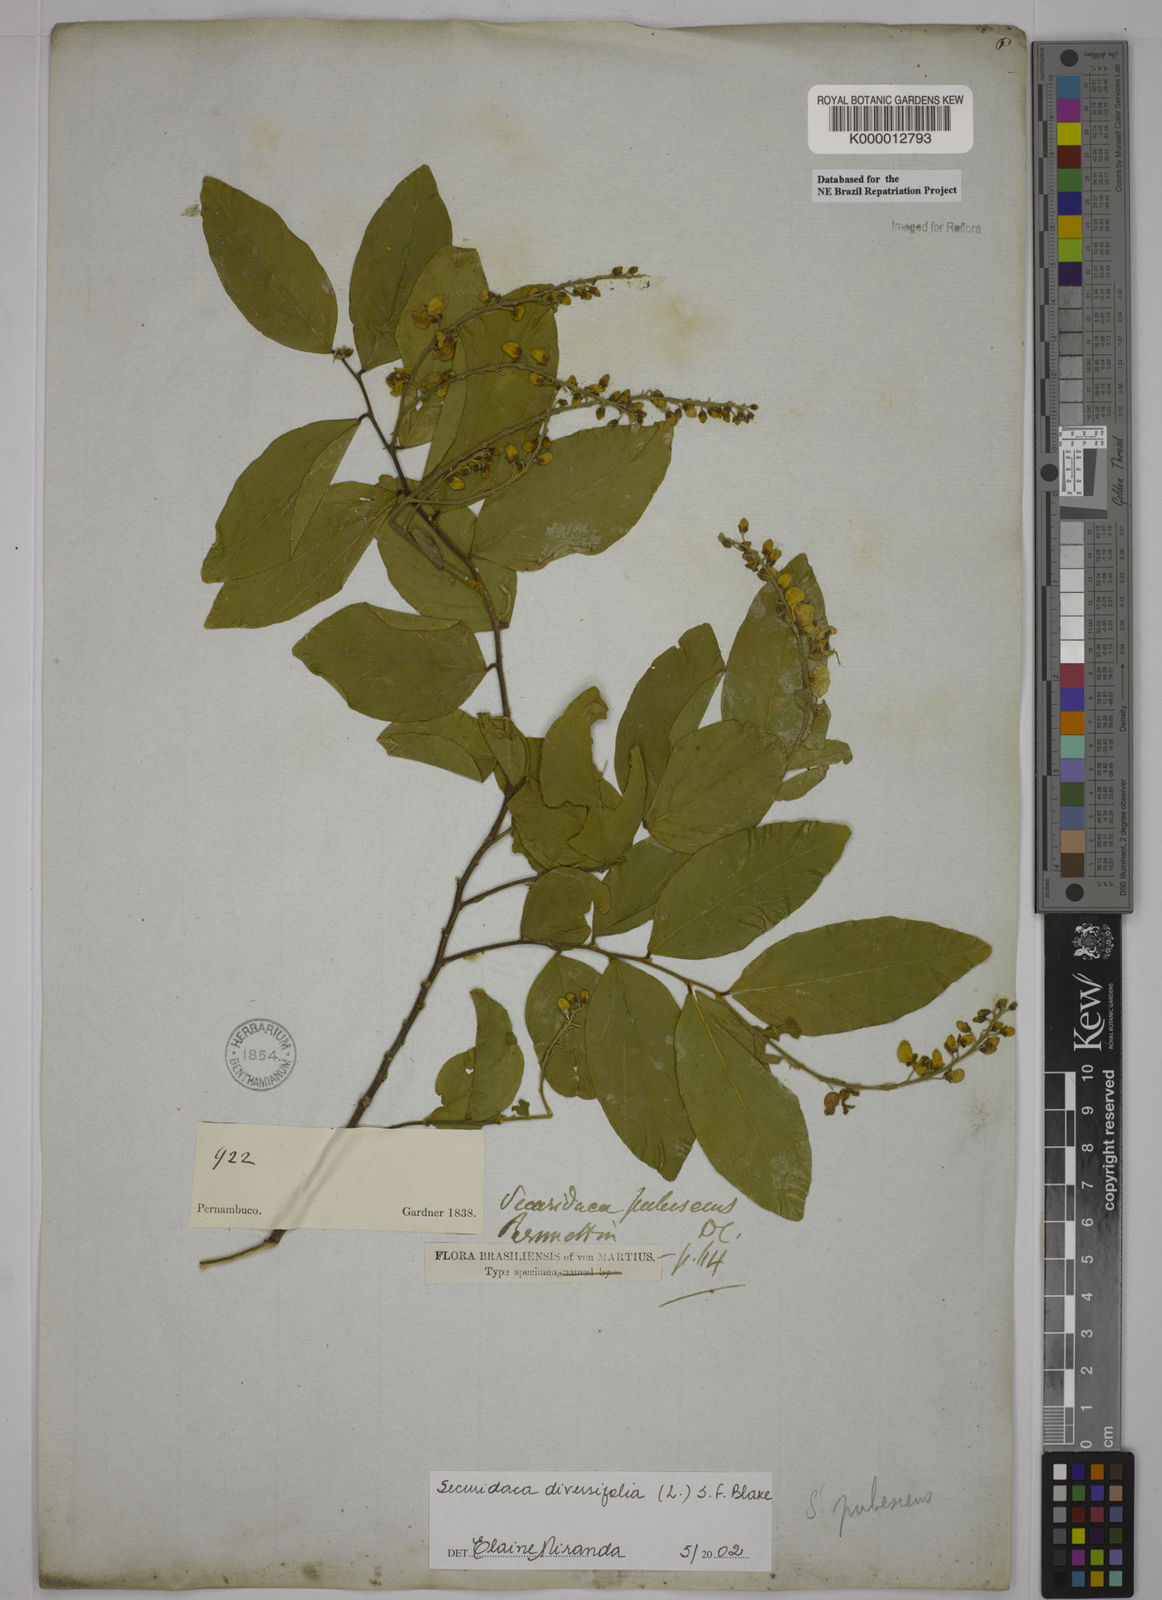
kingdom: Plantae
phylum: Tracheophyta
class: Magnoliopsida
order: Fabales
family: Polygalaceae
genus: Securidaca
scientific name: Securidaca diversifolia
